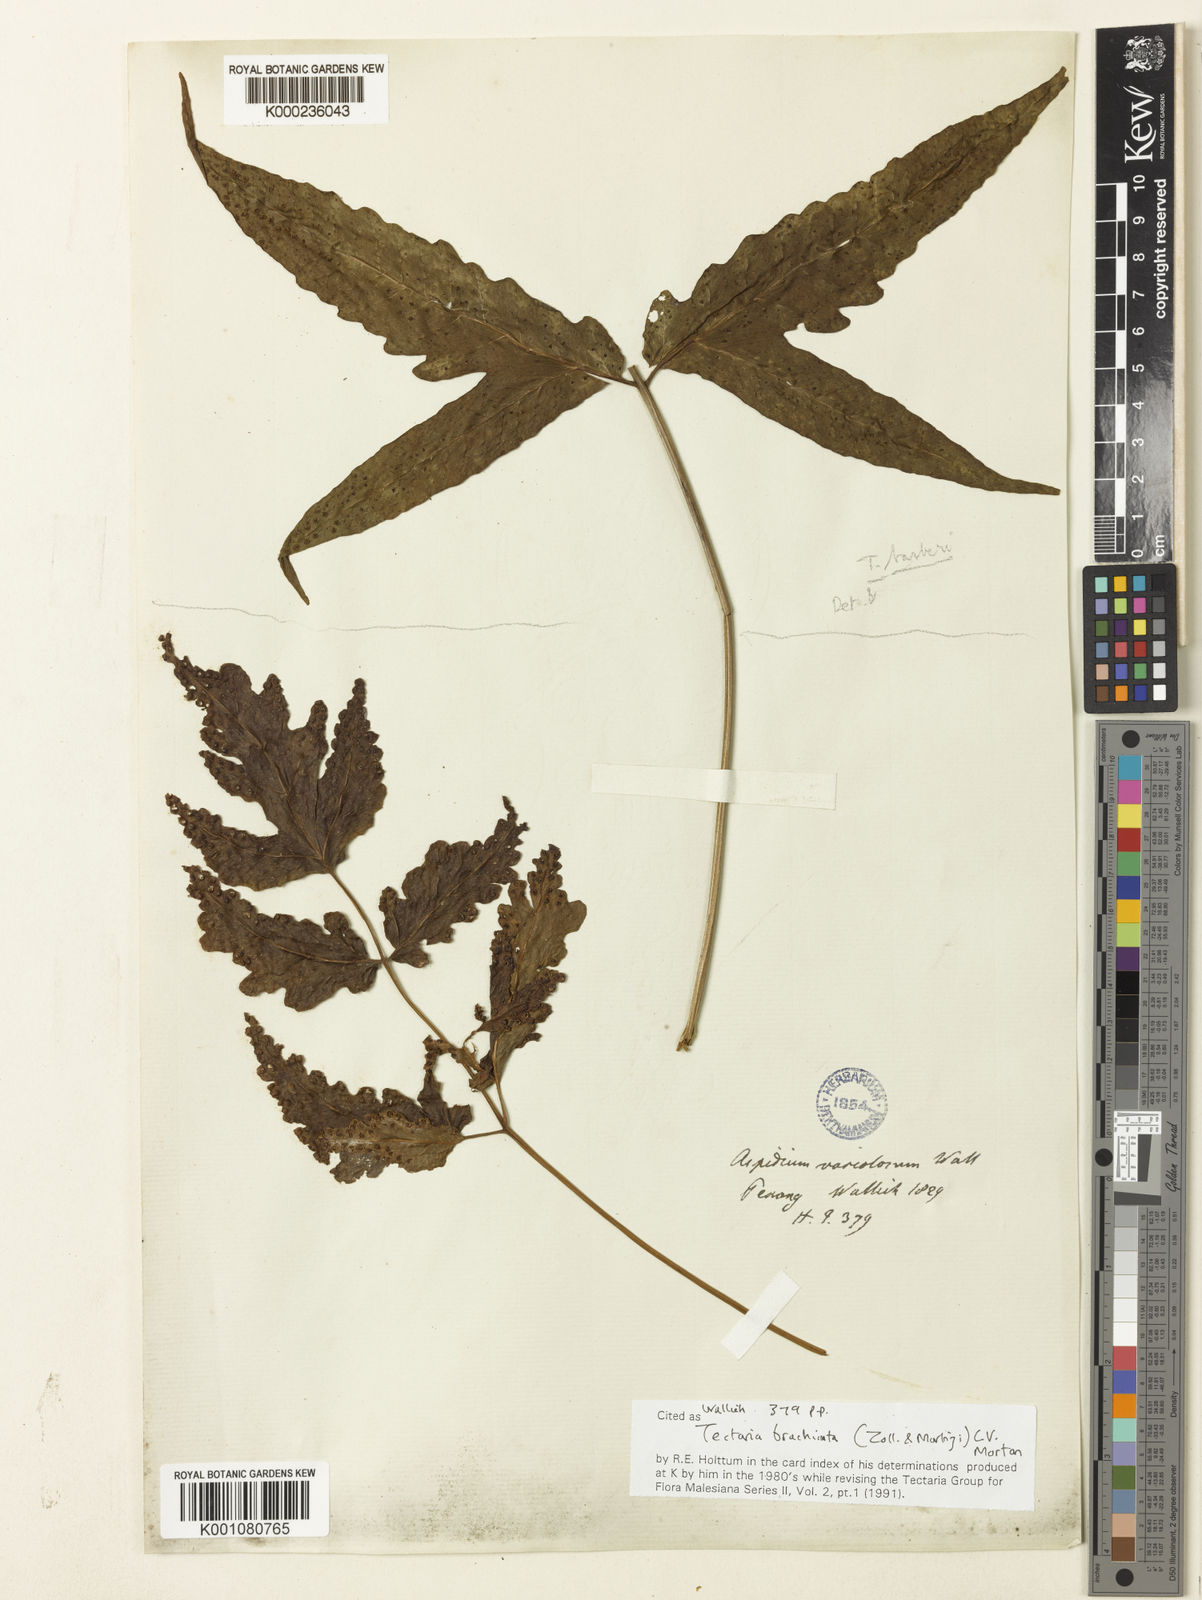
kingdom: Plantae
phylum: Tracheophyta
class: Polypodiopsida
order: Polypodiales
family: Tectariaceae
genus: Tectaria
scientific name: Tectaria brachiata
